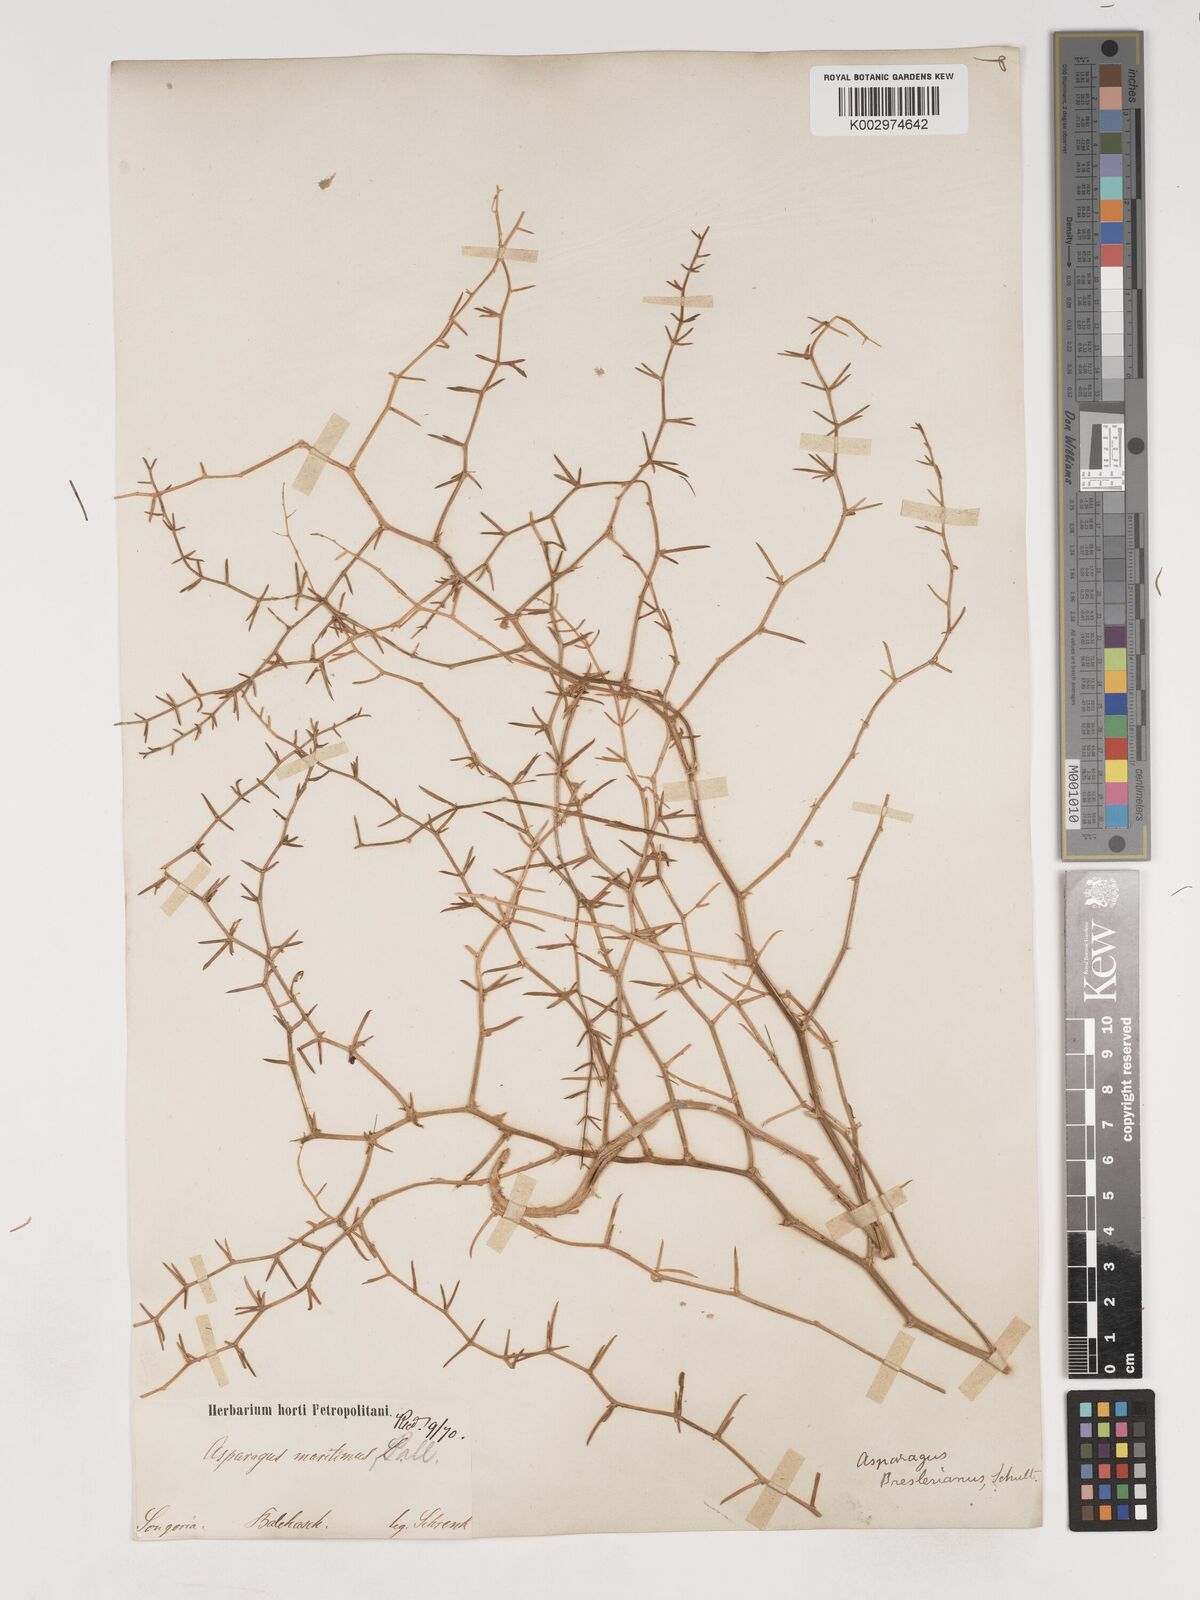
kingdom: Plantae
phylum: Tracheophyta
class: Liliopsida
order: Asparagales
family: Asparagaceae
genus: Asparagus
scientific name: Asparagus breslerianus
